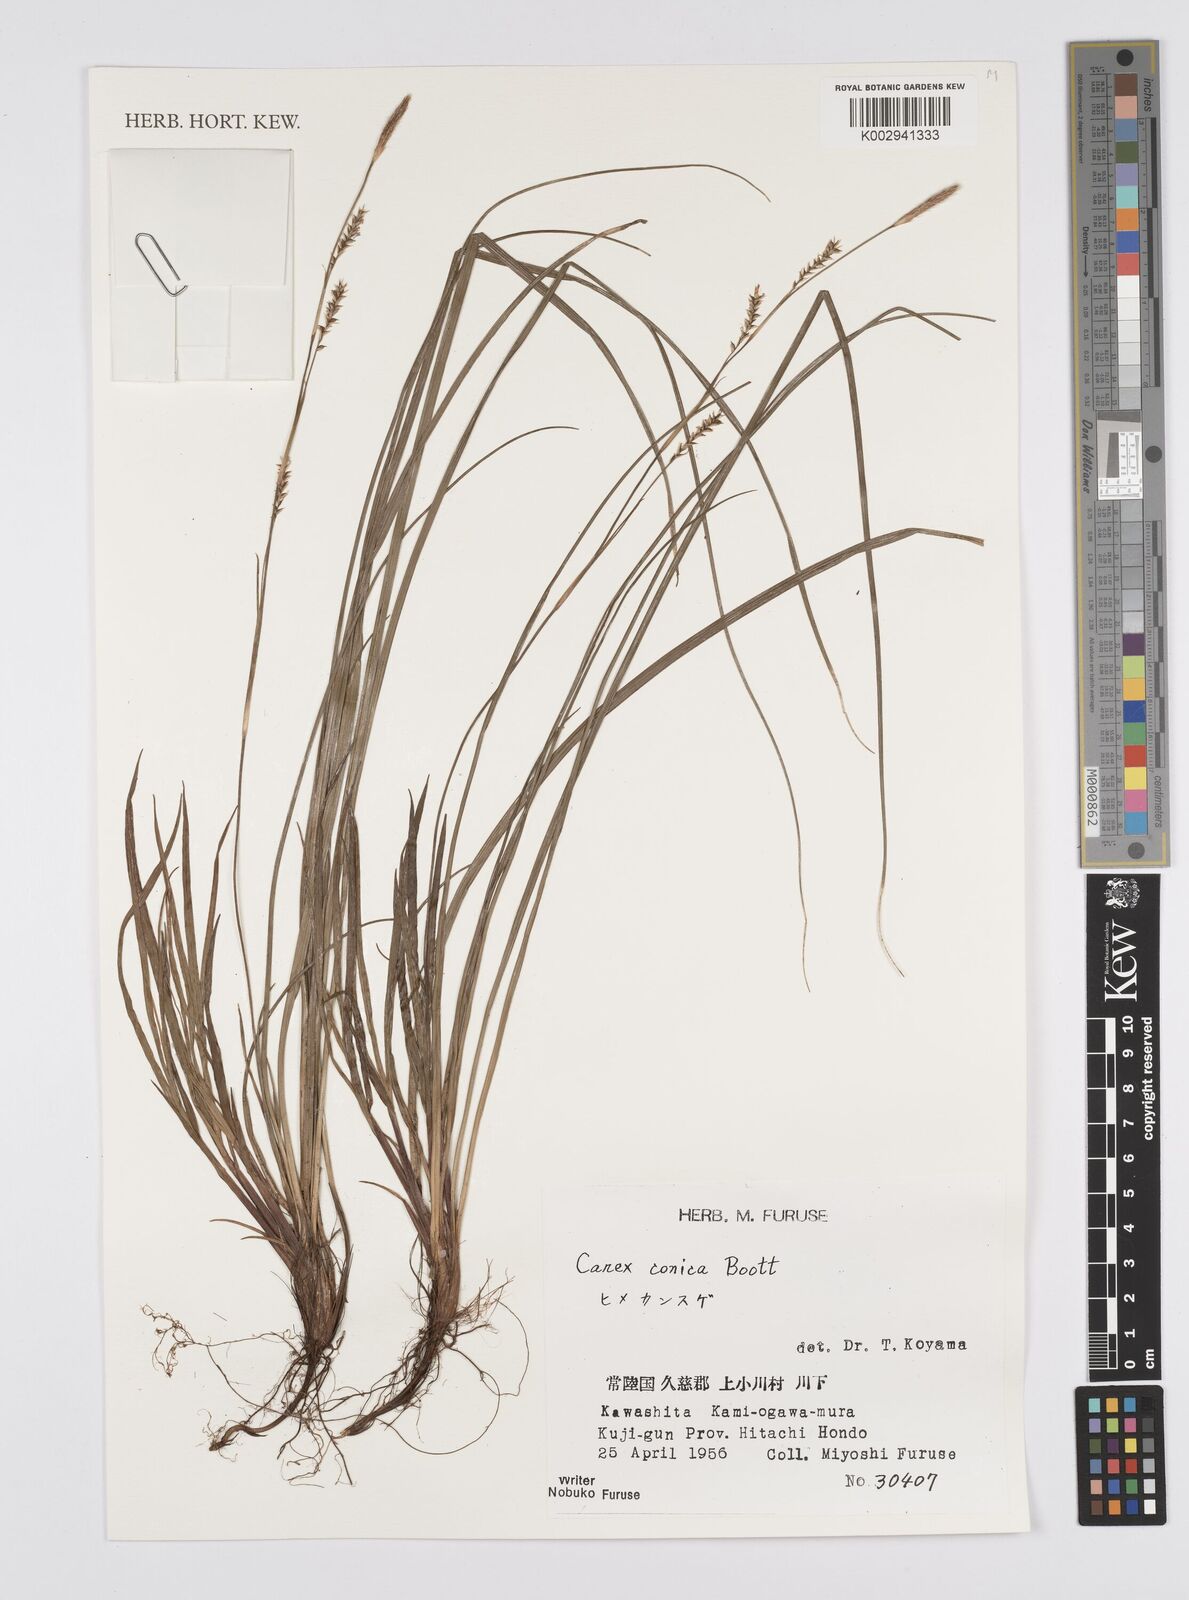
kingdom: Plantae
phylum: Tracheophyta
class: Liliopsida
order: Poales
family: Cyperaceae
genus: Carex
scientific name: Carex conica
